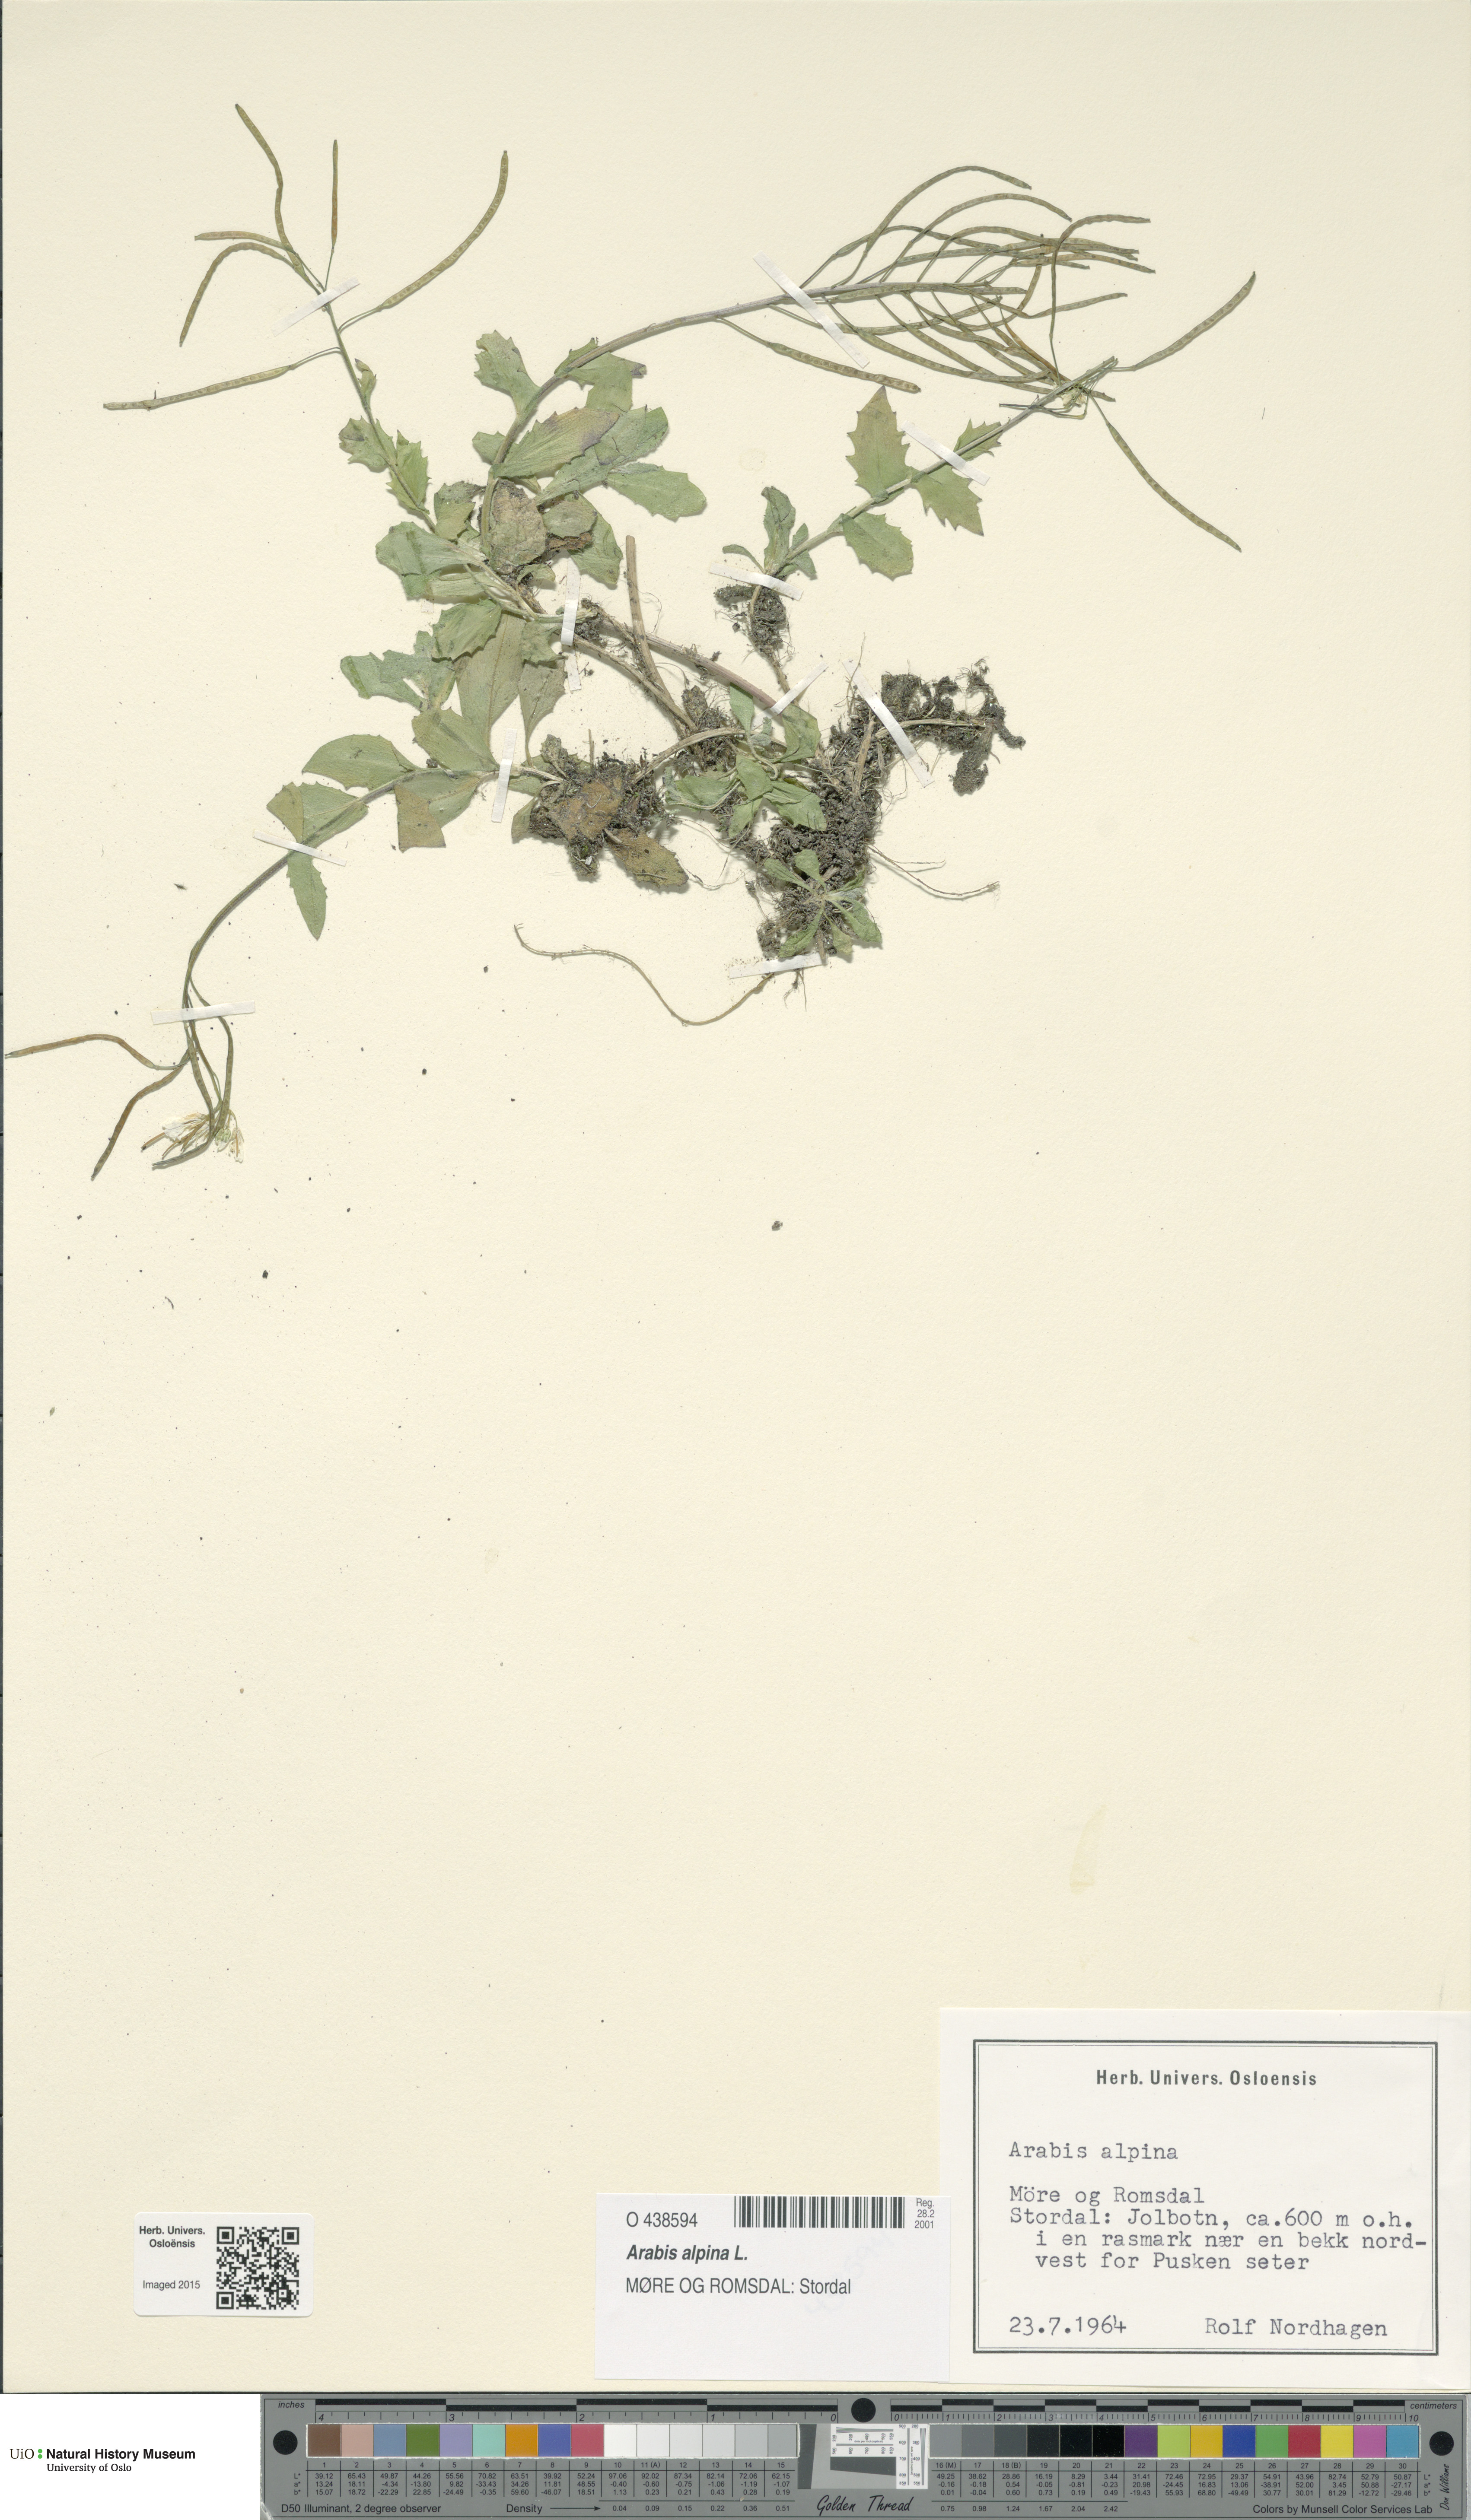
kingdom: Plantae
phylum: Tracheophyta
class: Magnoliopsida
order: Brassicales
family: Brassicaceae
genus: Arabis
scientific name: Arabis alpina
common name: Alpine rock-cress
